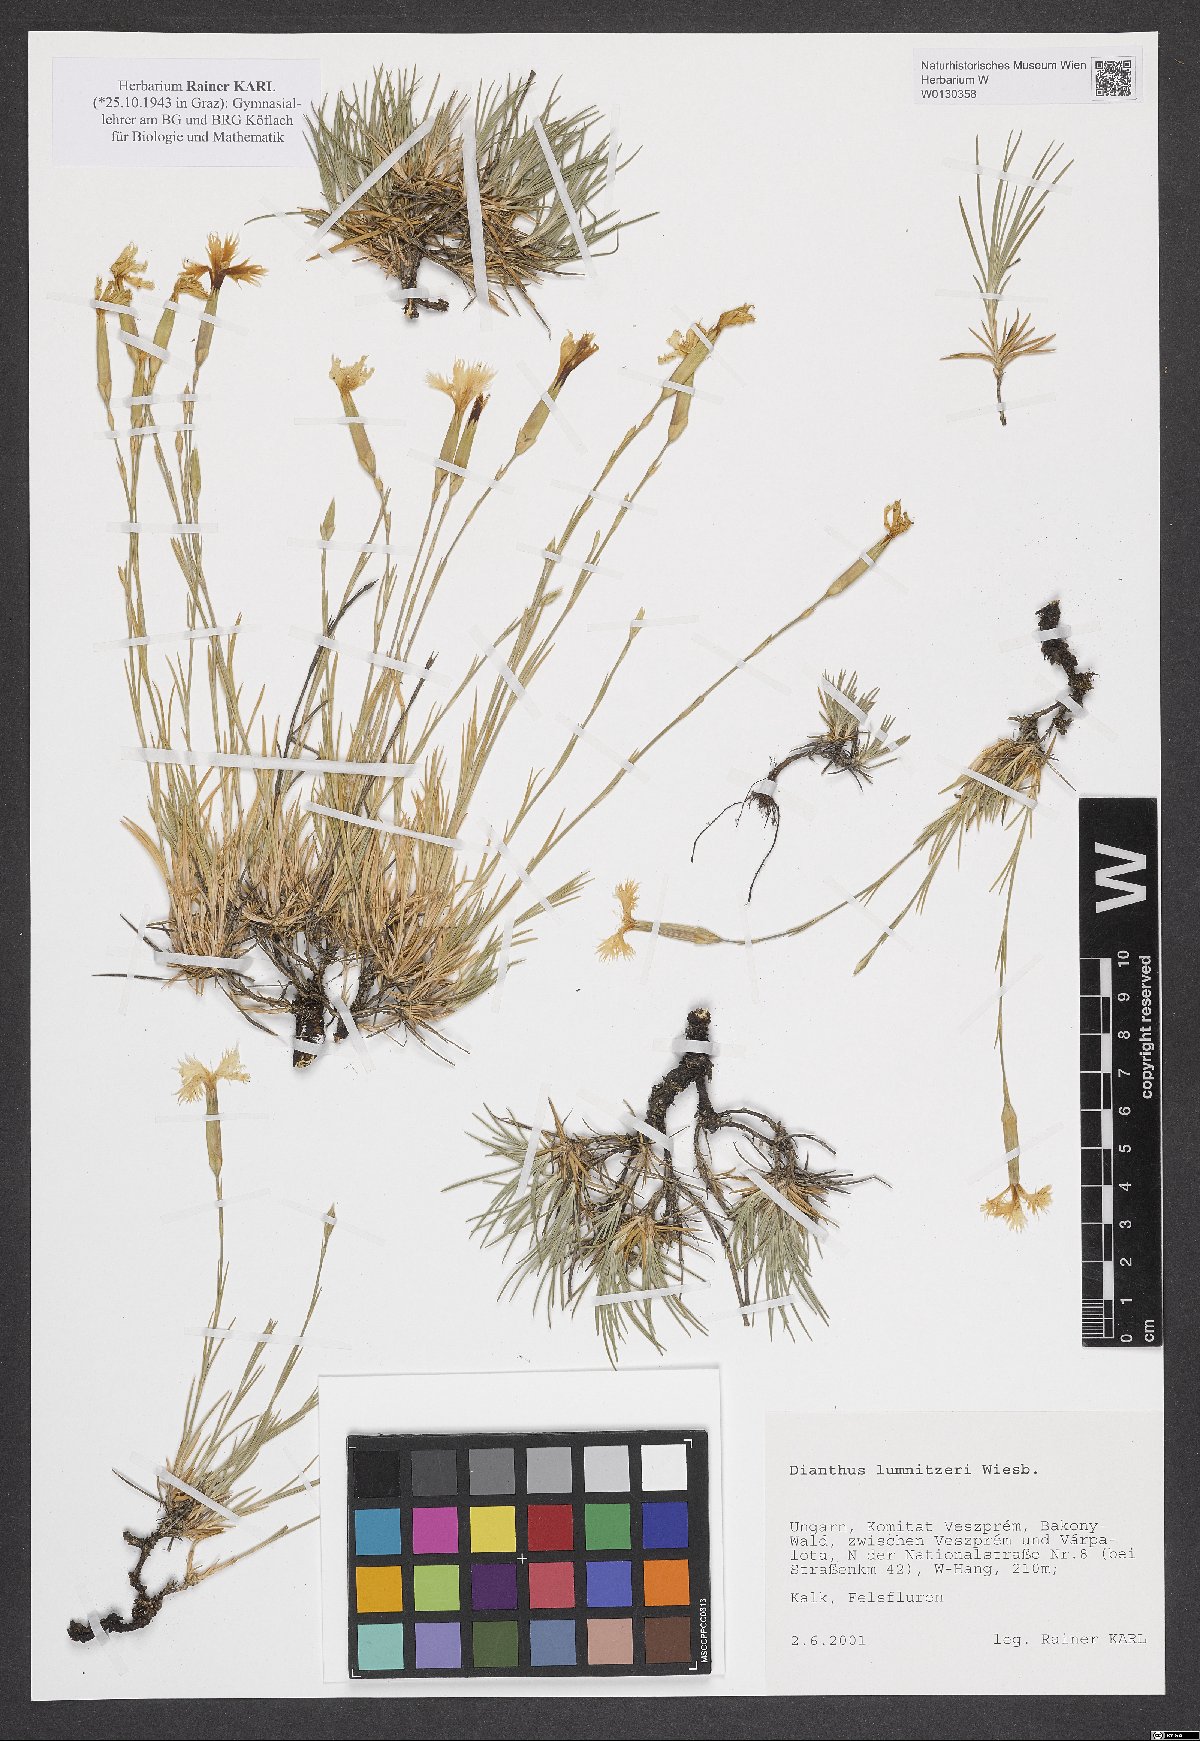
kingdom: Plantae
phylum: Tracheophyta
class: Magnoliopsida
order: Caryophyllales
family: Caryophyllaceae
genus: Dianthus
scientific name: Dianthus praecox
